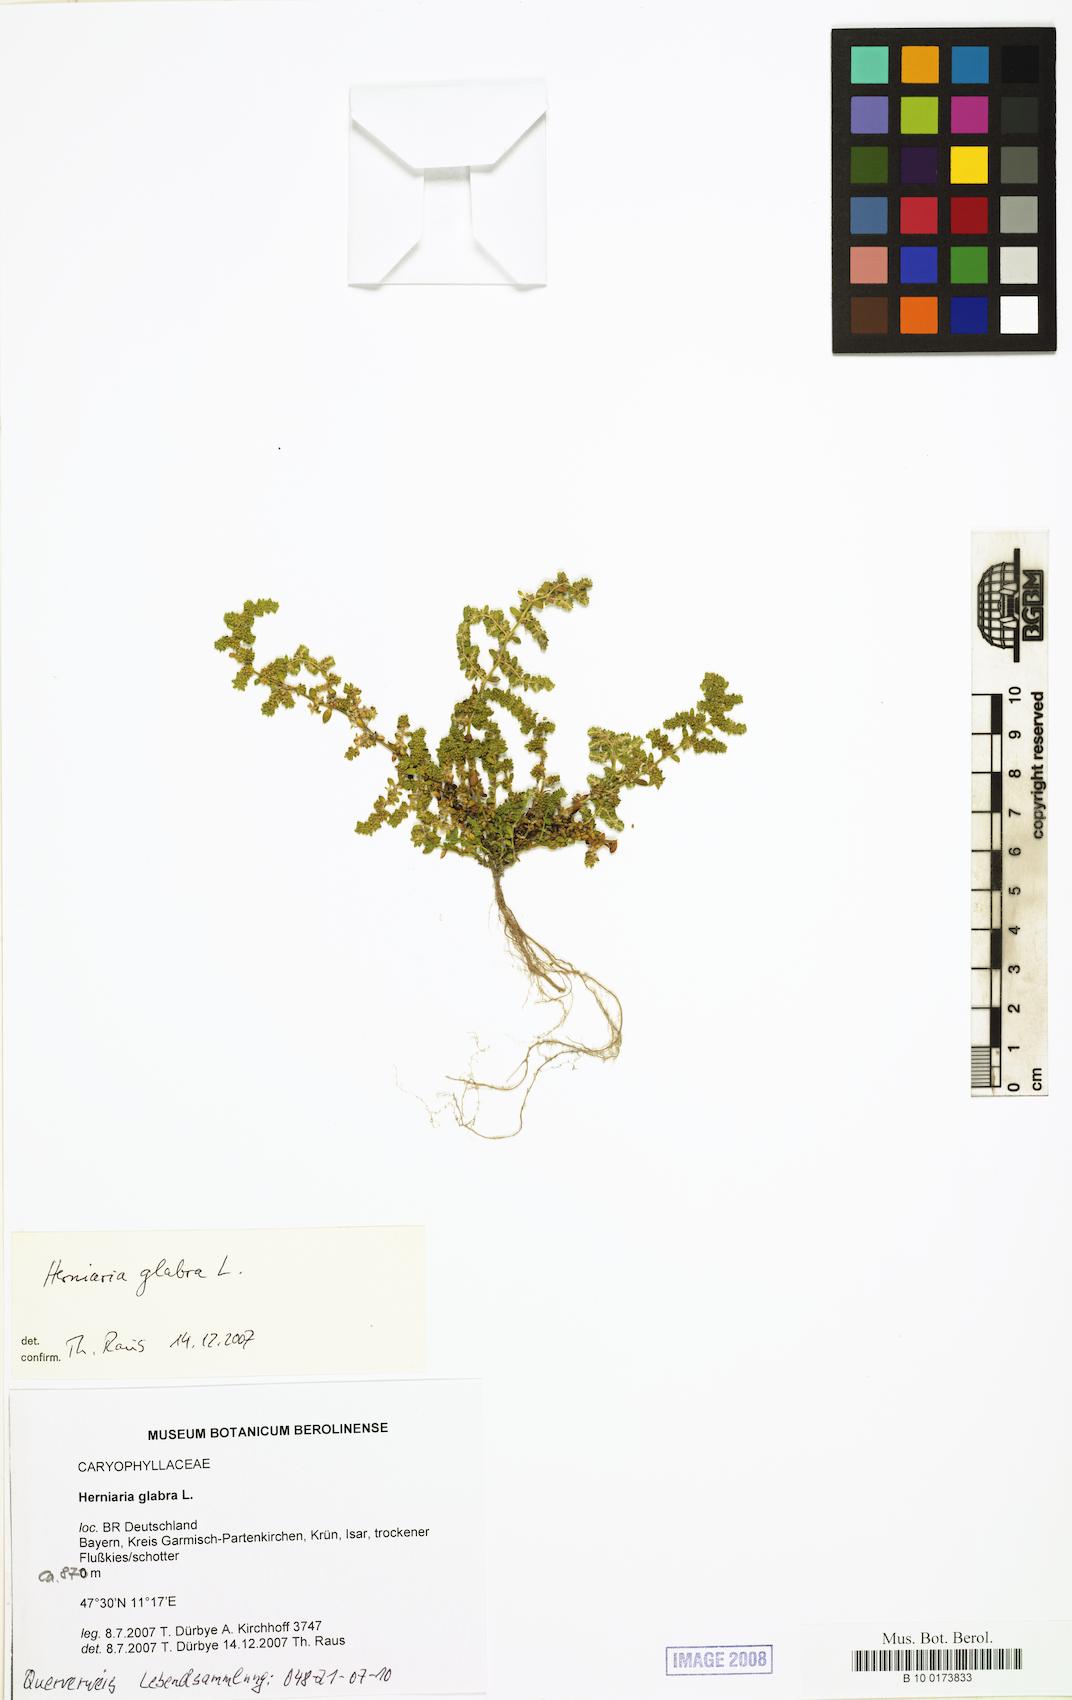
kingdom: Plantae
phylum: Tracheophyta
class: Magnoliopsida
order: Caryophyllales
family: Caryophyllaceae
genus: Herniaria
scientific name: Herniaria glabra
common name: Smooth rupturewort
